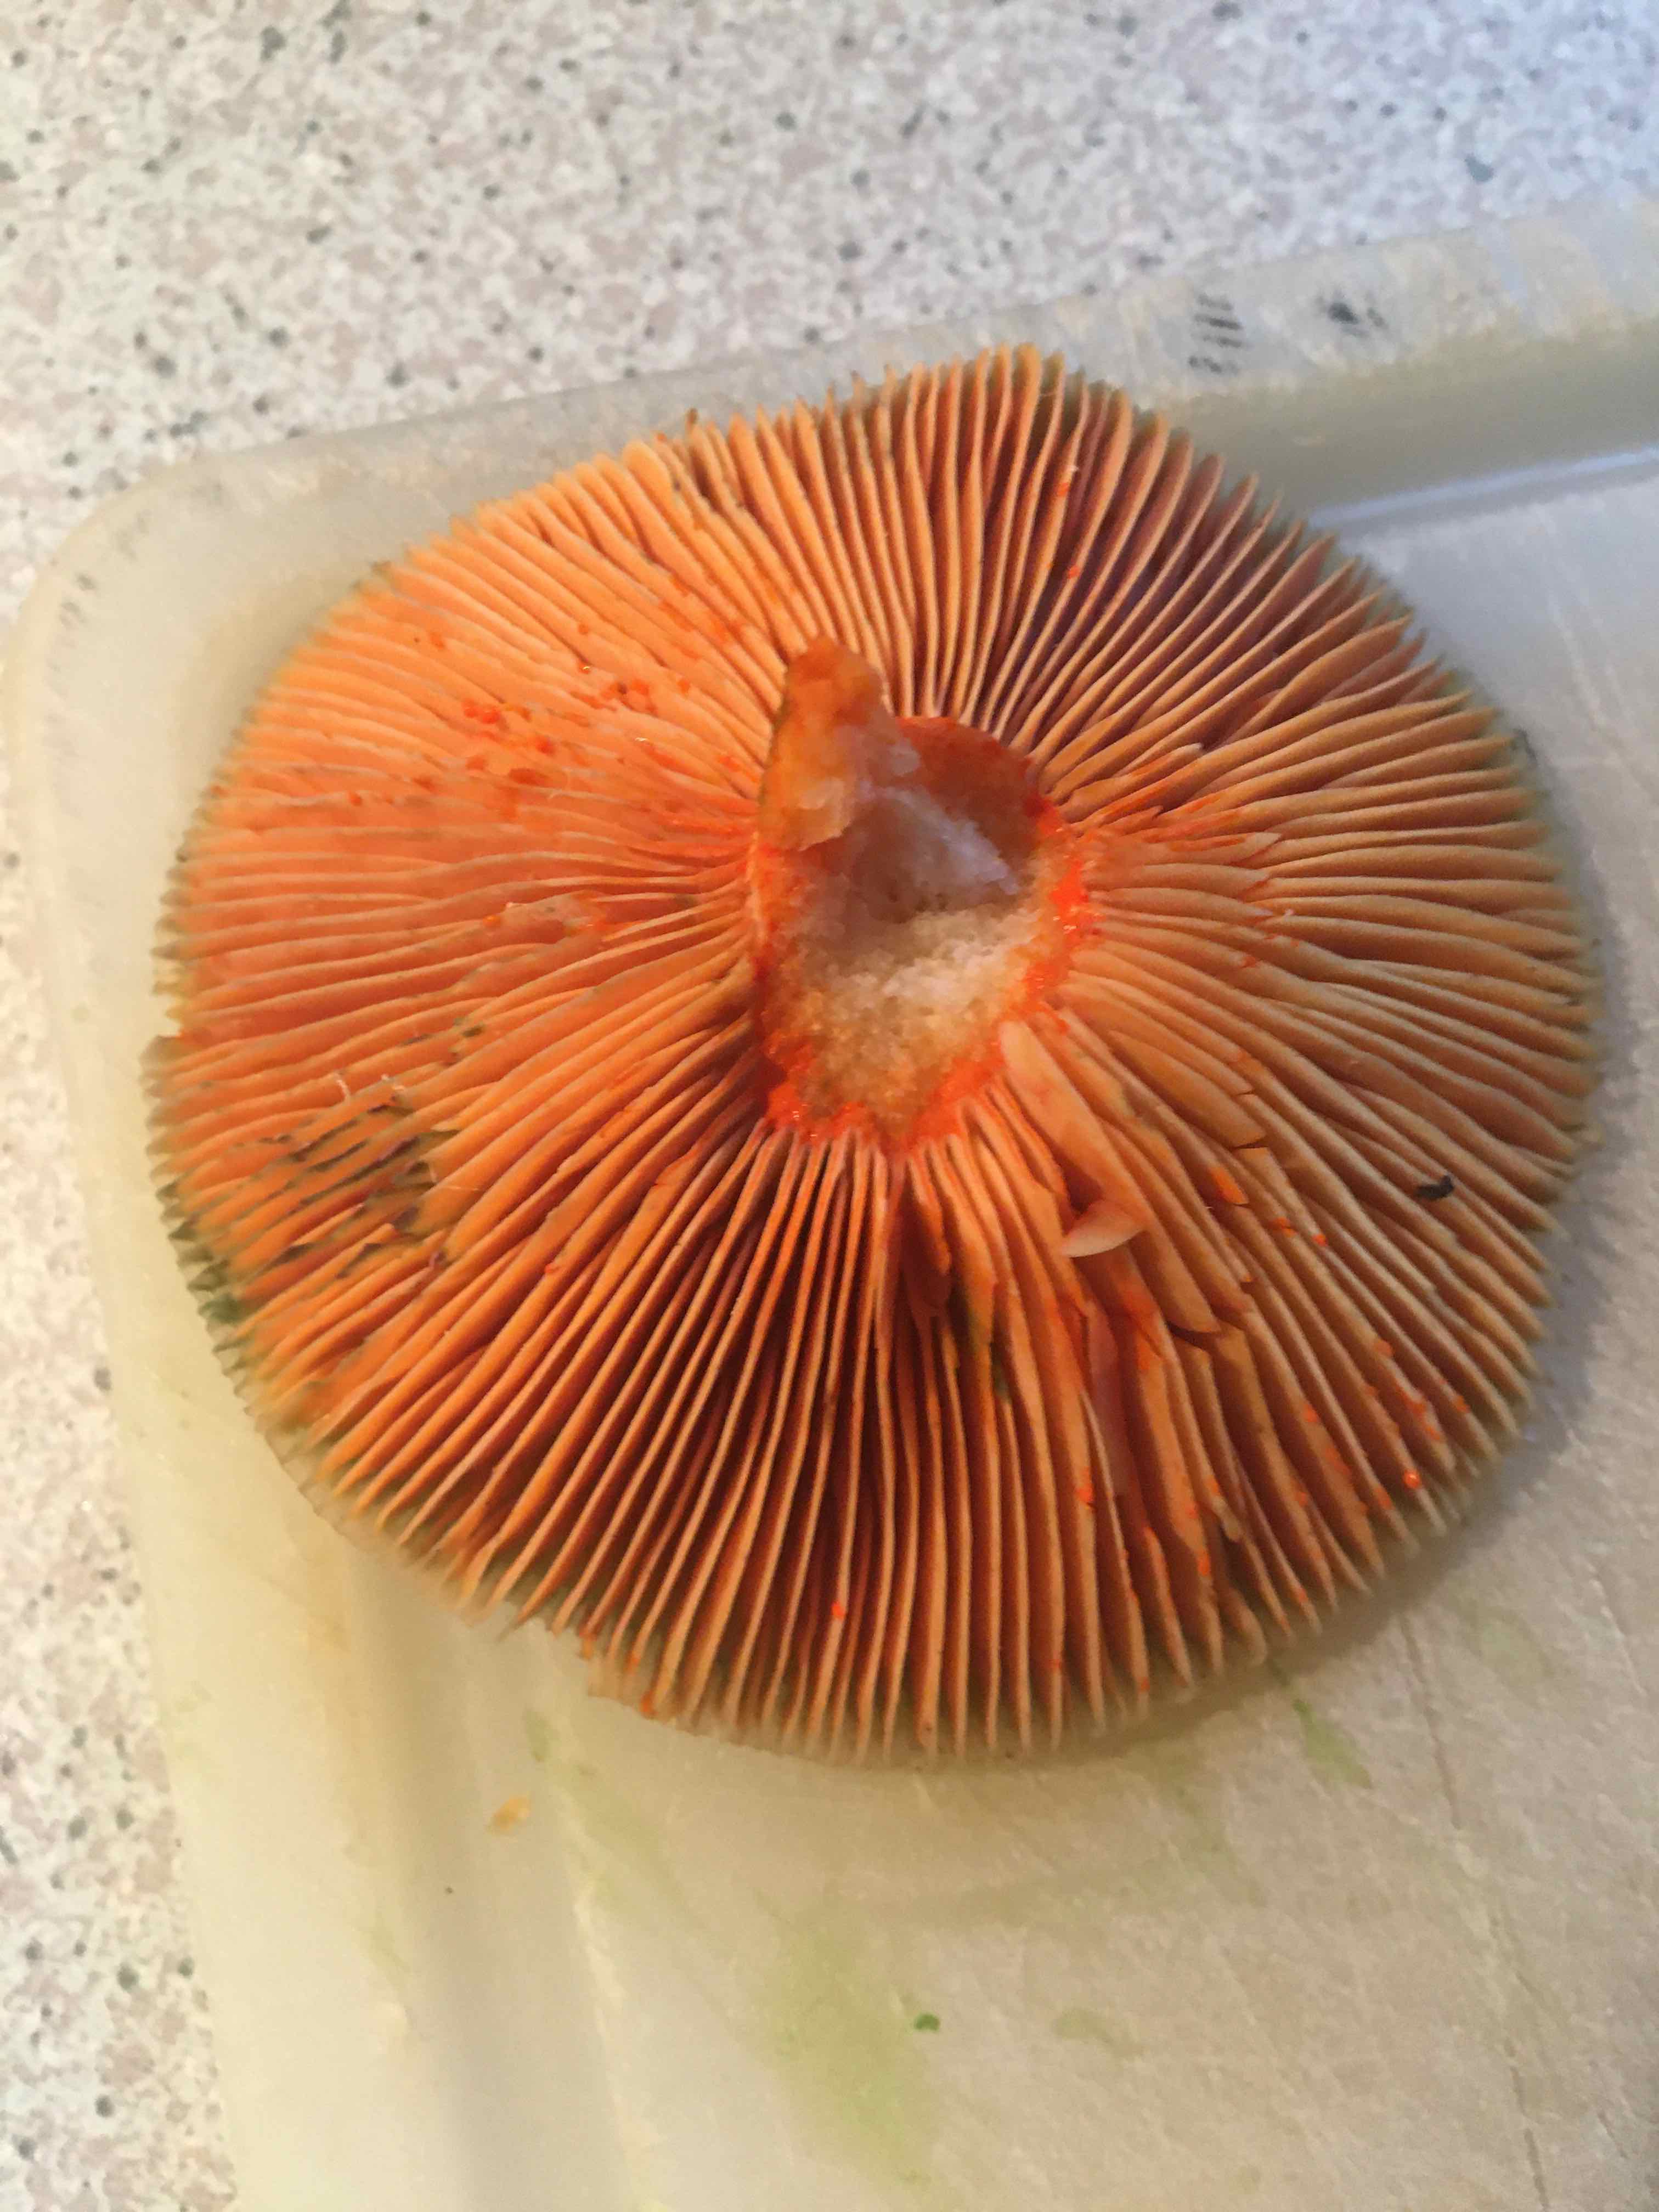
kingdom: Fungi
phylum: Basidiomycota
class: Agaricomycetes
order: Russulales
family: Russulaceae
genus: Lactarius
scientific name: Lactarius deterrimus
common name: gran-mælkehat
